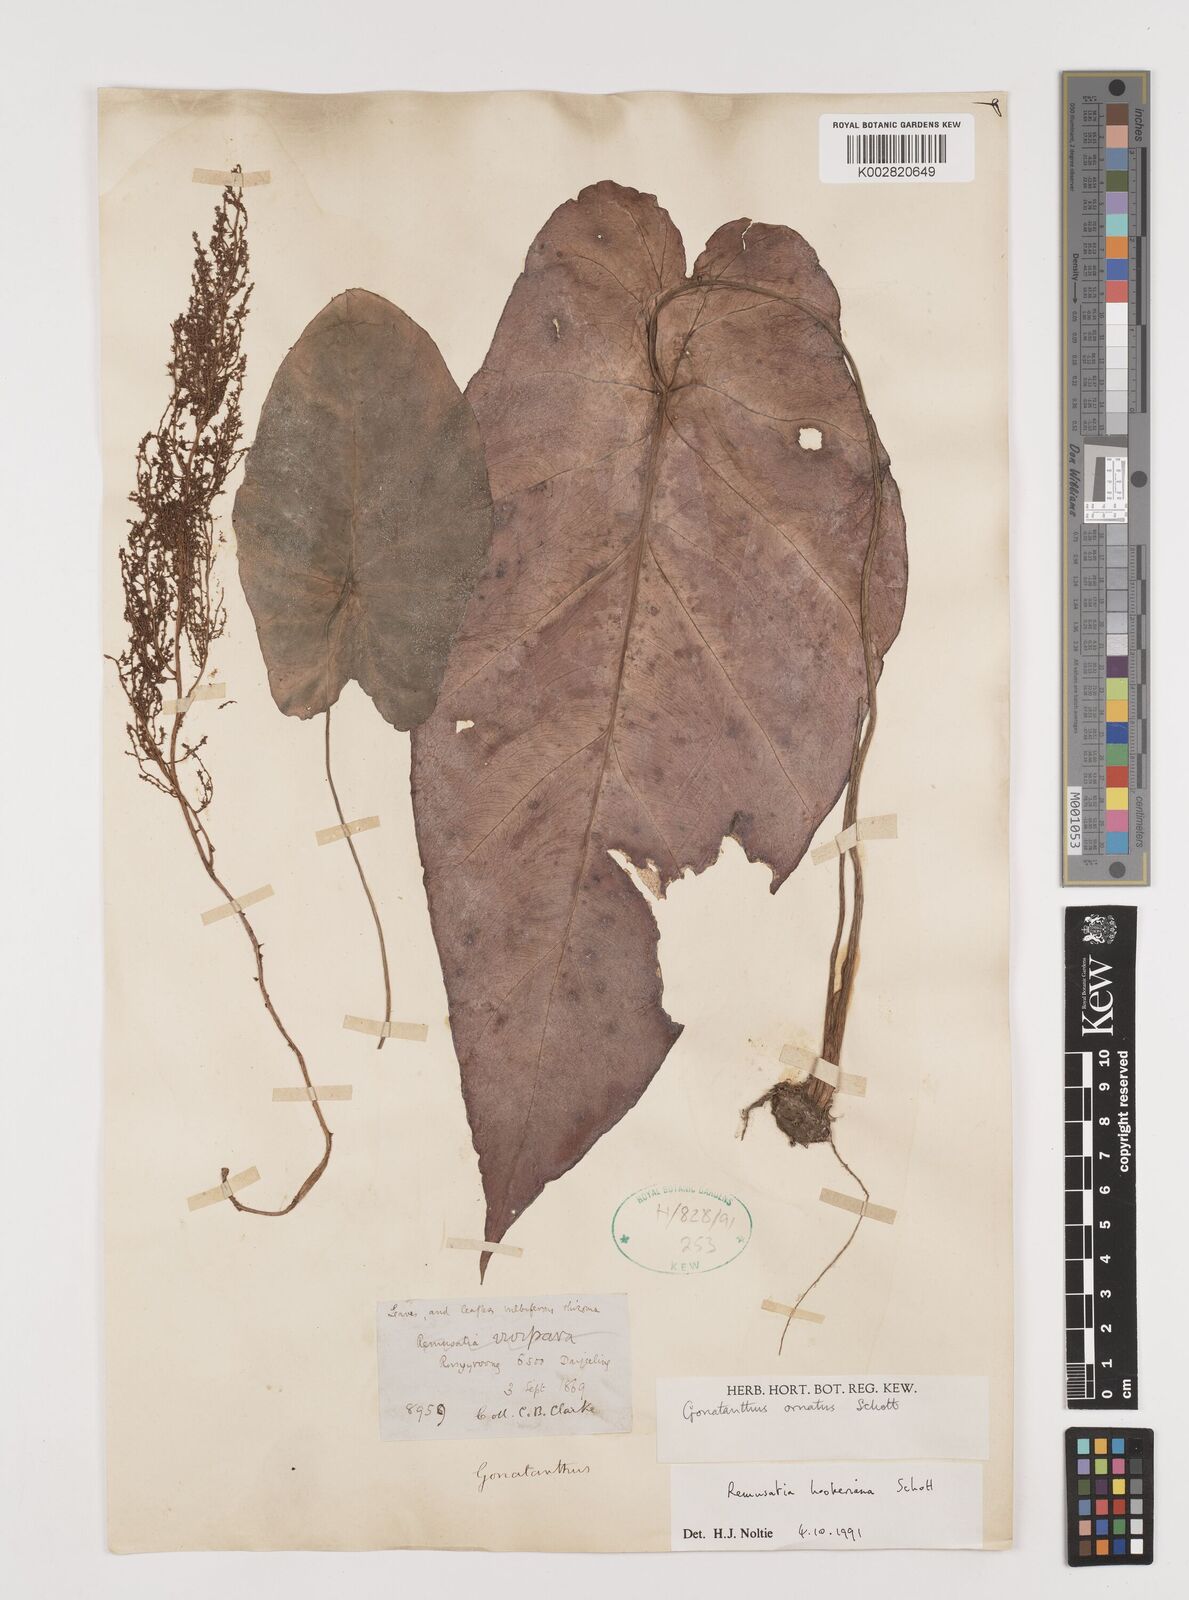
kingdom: Plantae
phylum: Tracheophyta
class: Liliopsida
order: Alismatales
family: Araceae
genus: Remusatia
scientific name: Remusatia hookeriana
